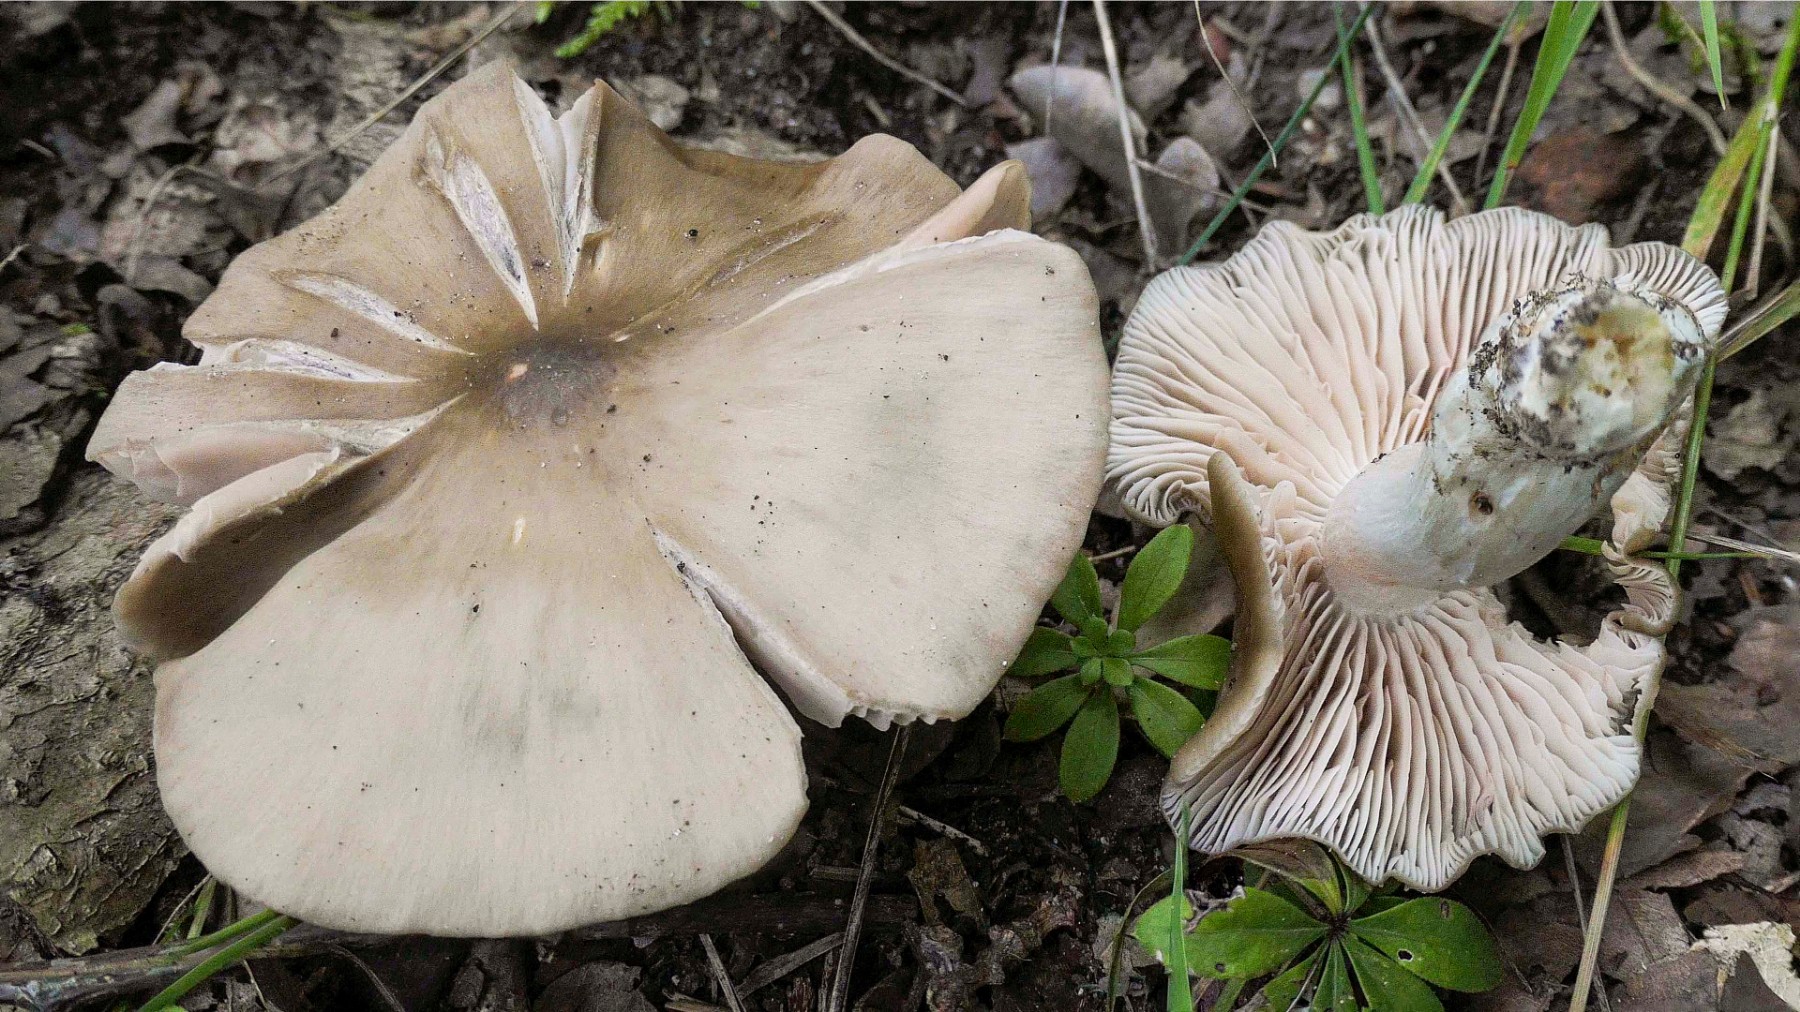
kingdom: Fungi
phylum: Basidiomycota
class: Agaricomycetes
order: Agaricales
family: Entolomataceae
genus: Entoloma
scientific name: Entoloma lividoalbum
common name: lysstokket rødblad
